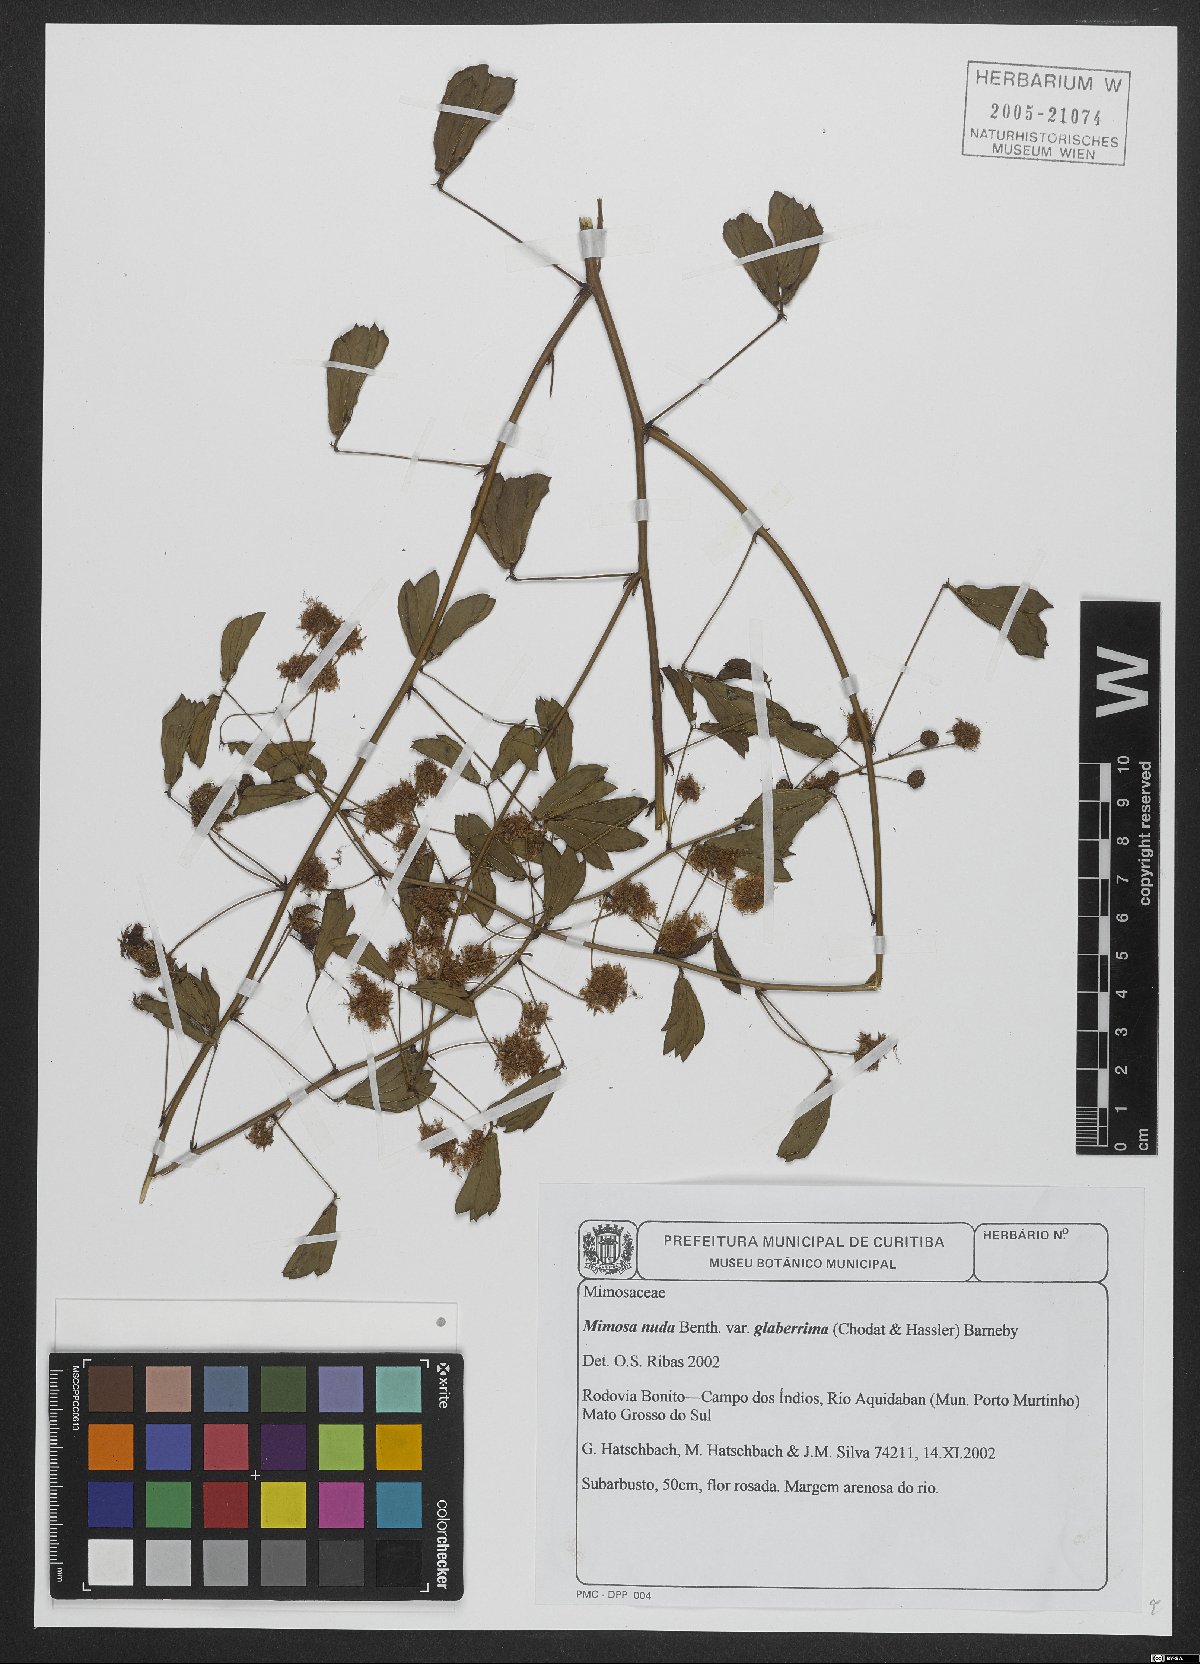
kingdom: Plantae
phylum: Tracheophyta
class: Magnoliopsida
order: Fabales
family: Fabaceae
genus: Mimosa
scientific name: Mimosa debilis
